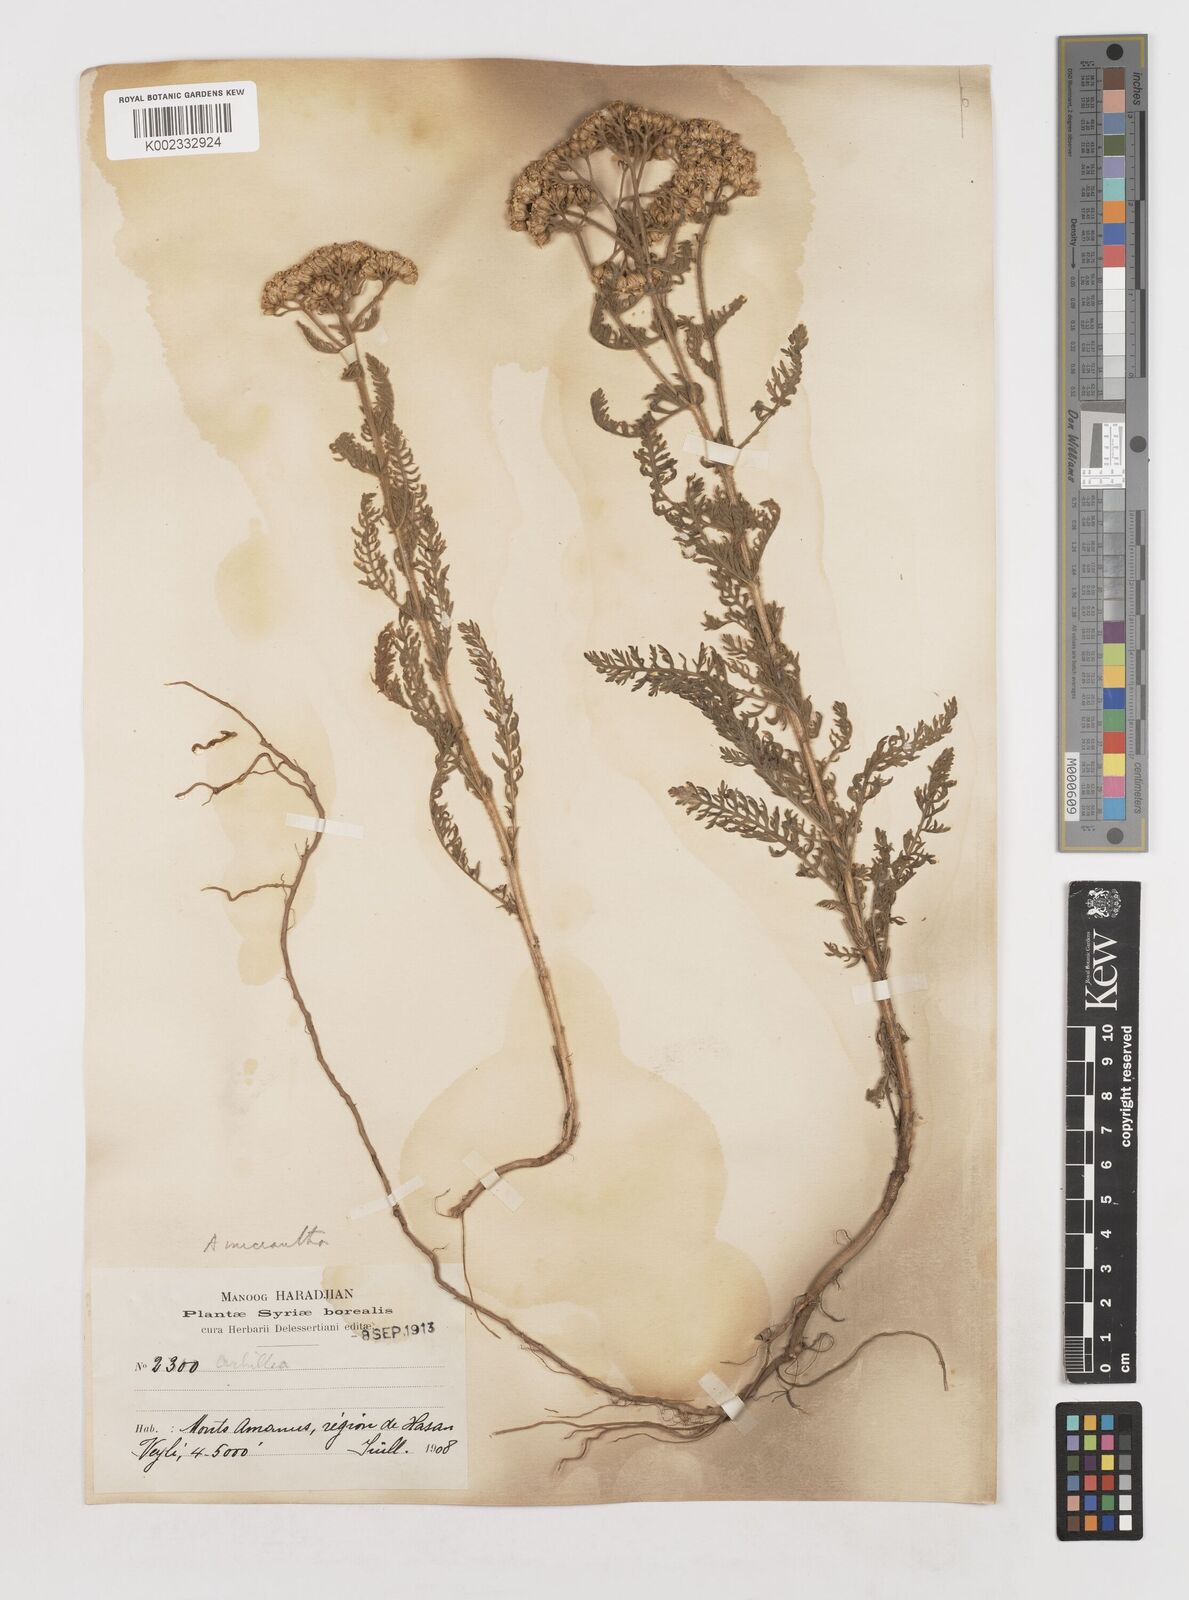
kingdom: Plantae
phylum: Tracheophyta
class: Magnoliopsida
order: Asterales
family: Asteraceae
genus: Achillea
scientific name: Achillea arabica
